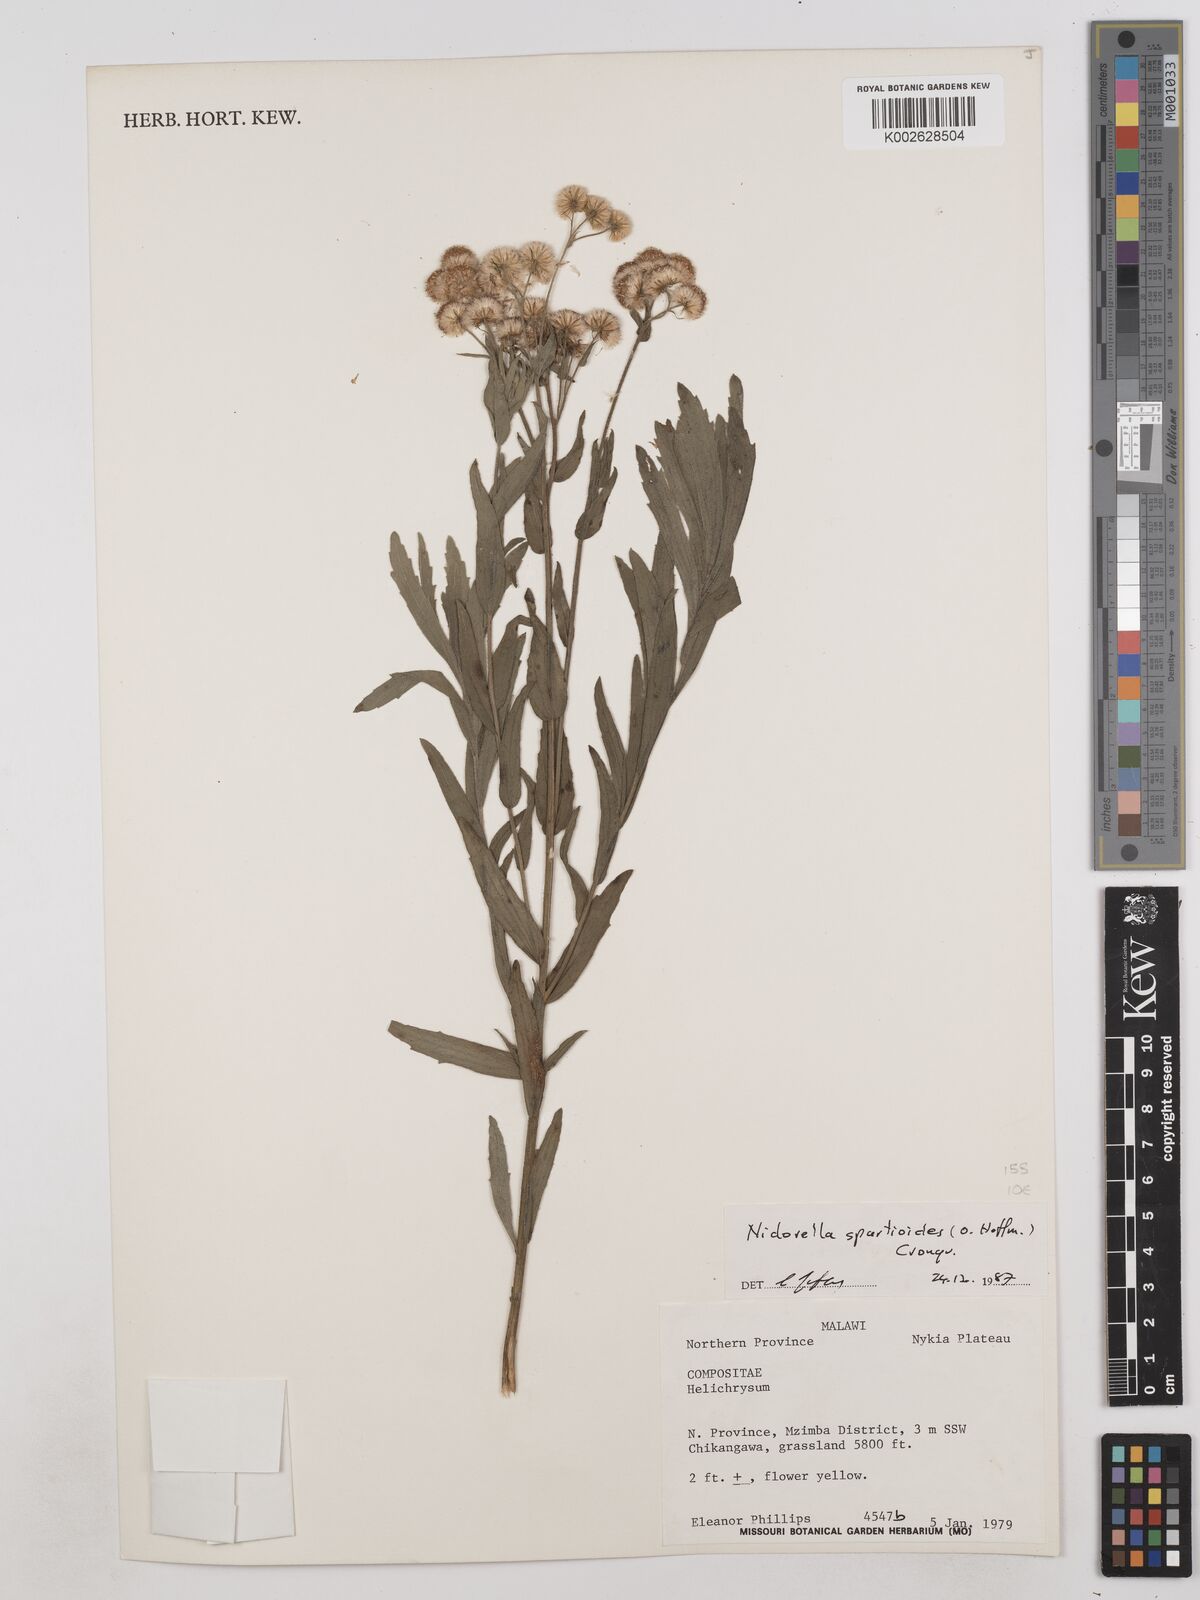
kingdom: Plantae
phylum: Tracheophyta
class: Magnoliopsida
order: Asterales
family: Asteraceae
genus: Nidorella
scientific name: Nidorella spartioides
